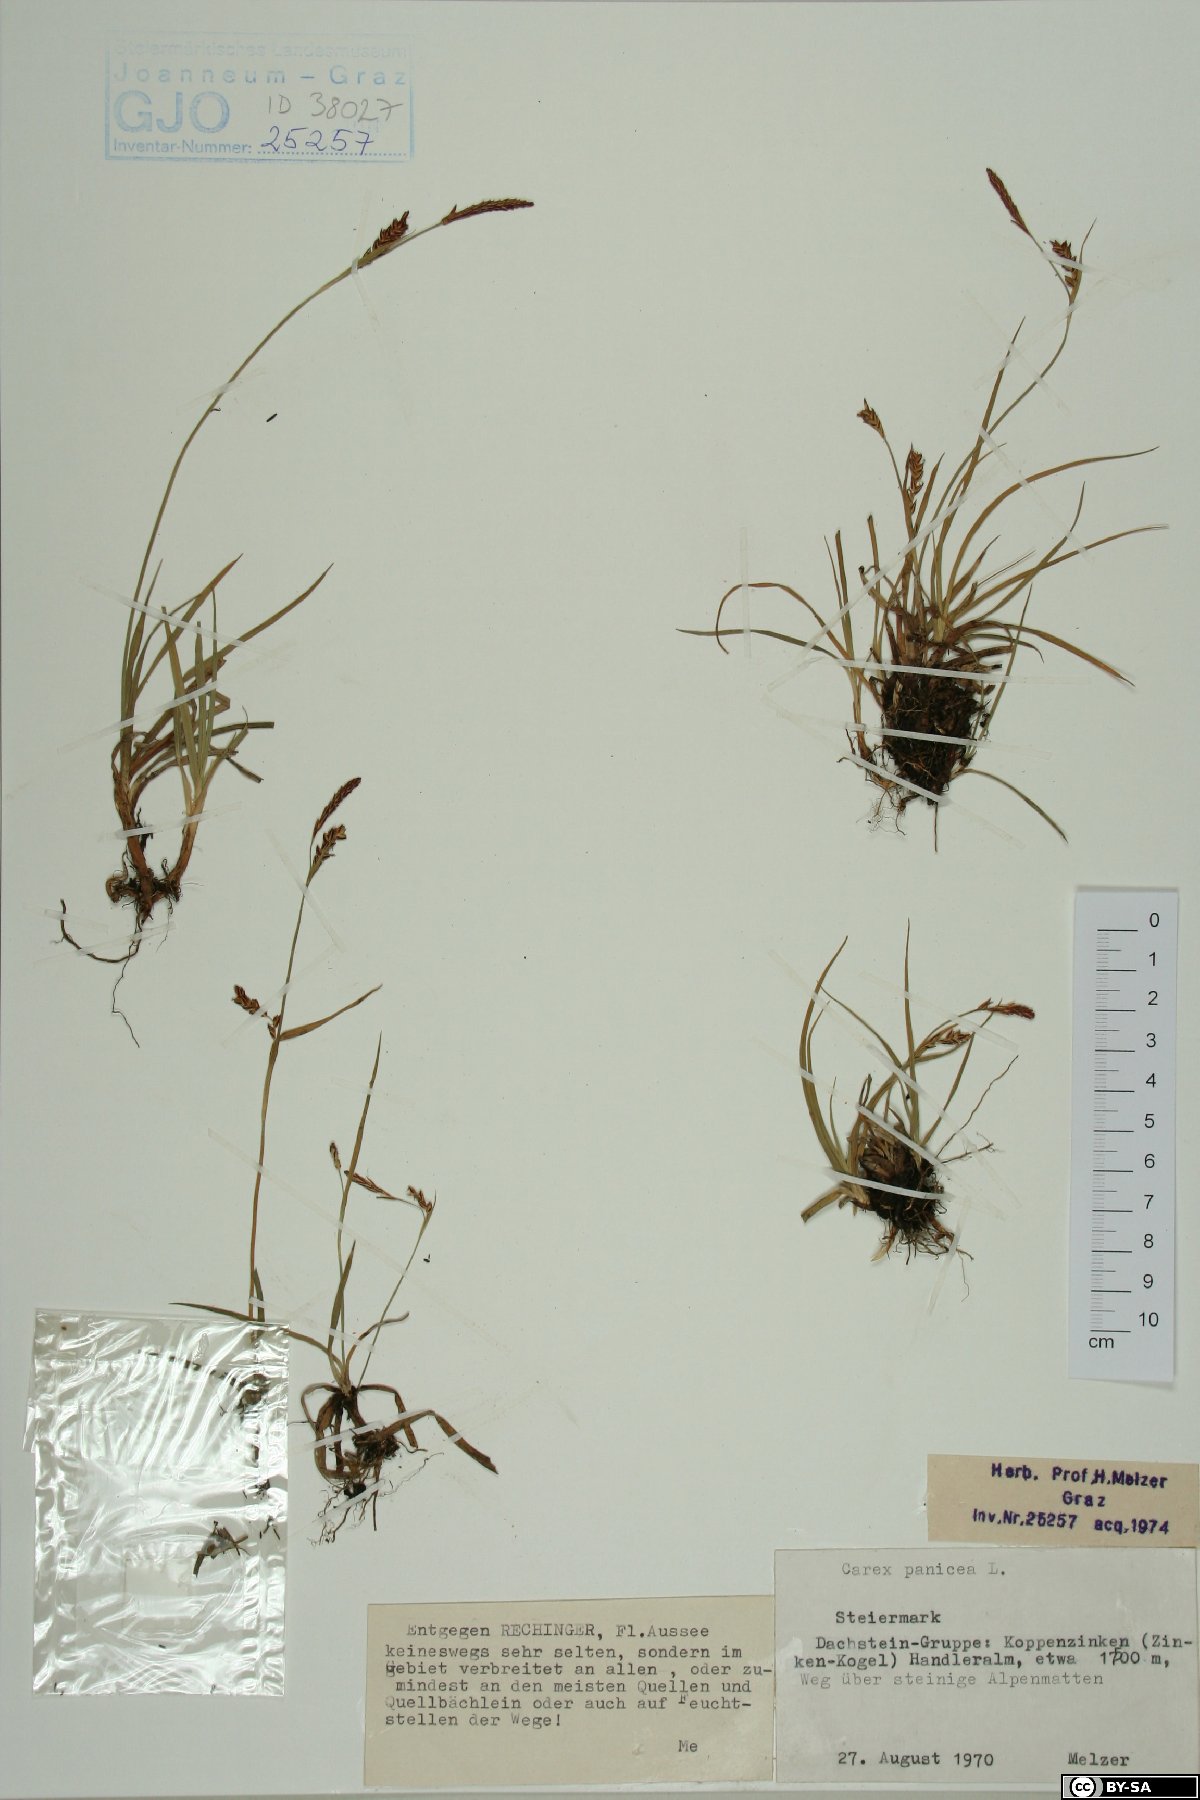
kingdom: Plantae
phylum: Tracheophyta
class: Liliopsida
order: Poales
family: Cyperaceae
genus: Carex
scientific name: Carex panicea
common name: Carnation sedge
